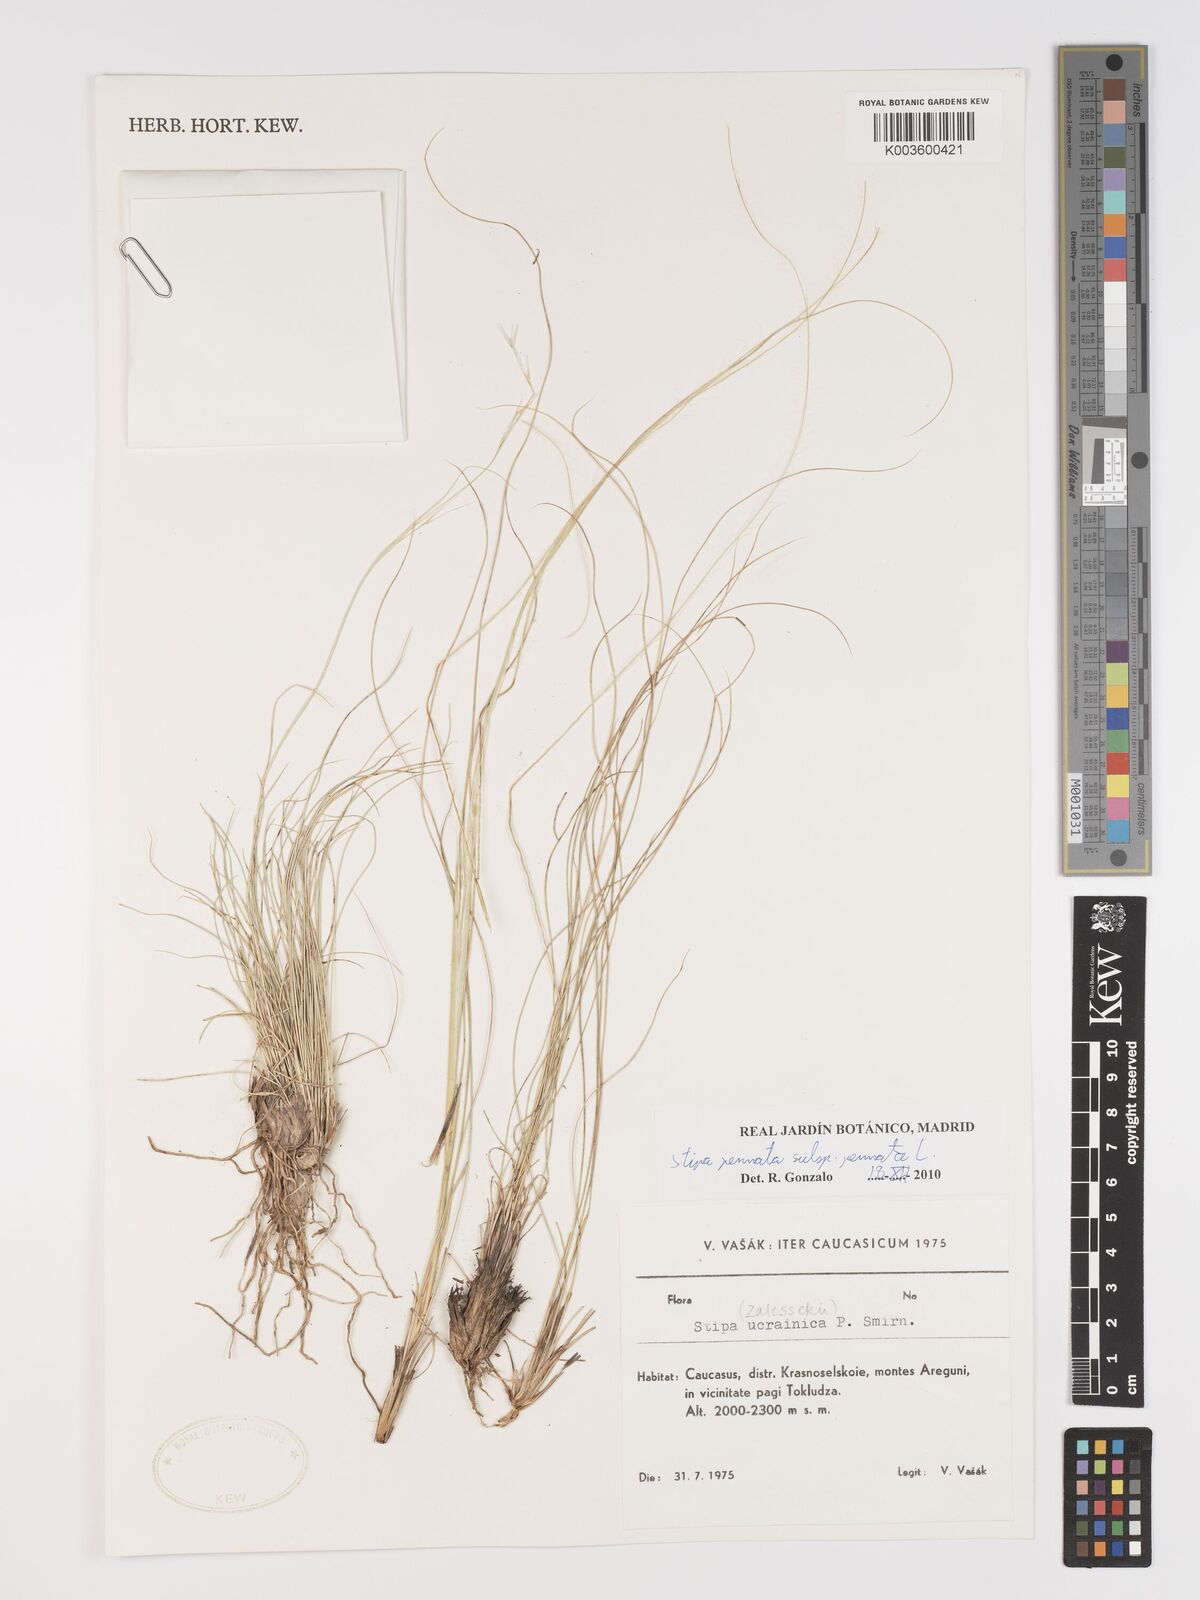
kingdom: Plantae
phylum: Tracheophyta
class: Liliopsida
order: Poales
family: Poaceae
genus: Stipa
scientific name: Stipa pennata
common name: European feather grass
